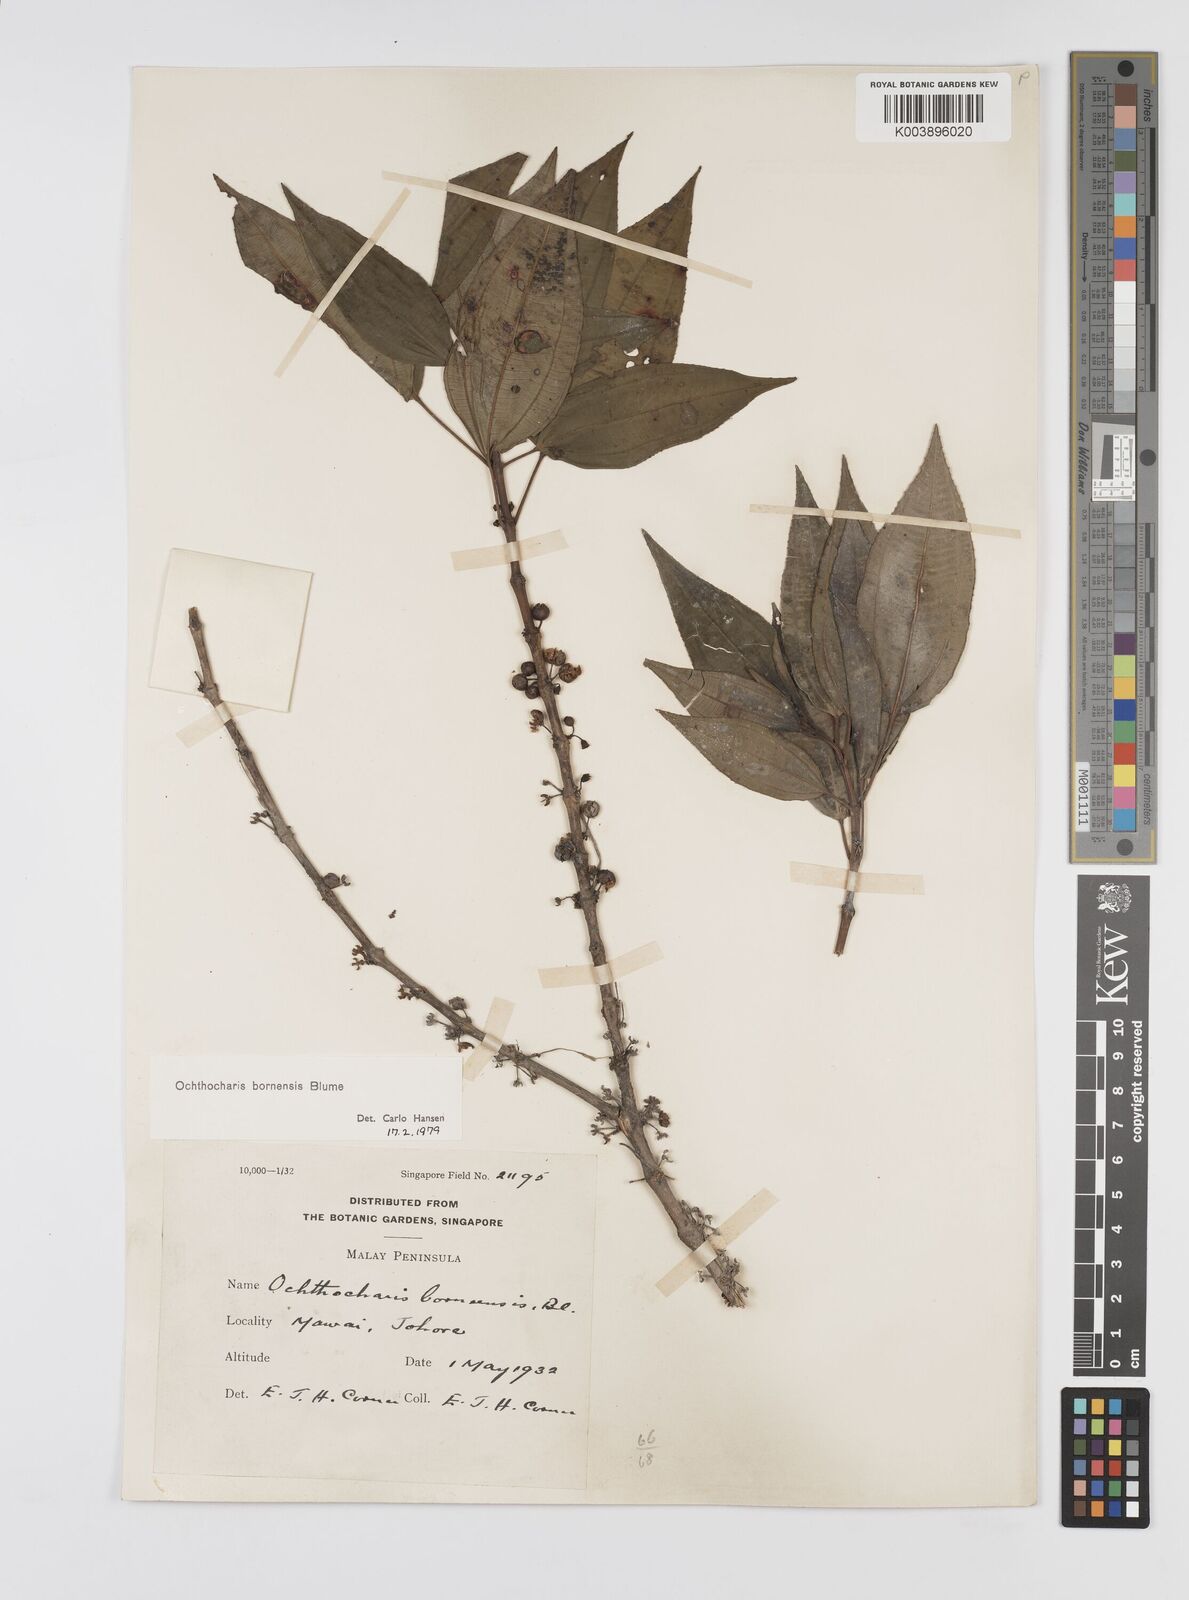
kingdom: Plantae
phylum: Tracheophyta
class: Magnoliopsida
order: Myrtales
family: Melastomataceae
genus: Ochthocharis
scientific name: Ochthocharis bornensis
